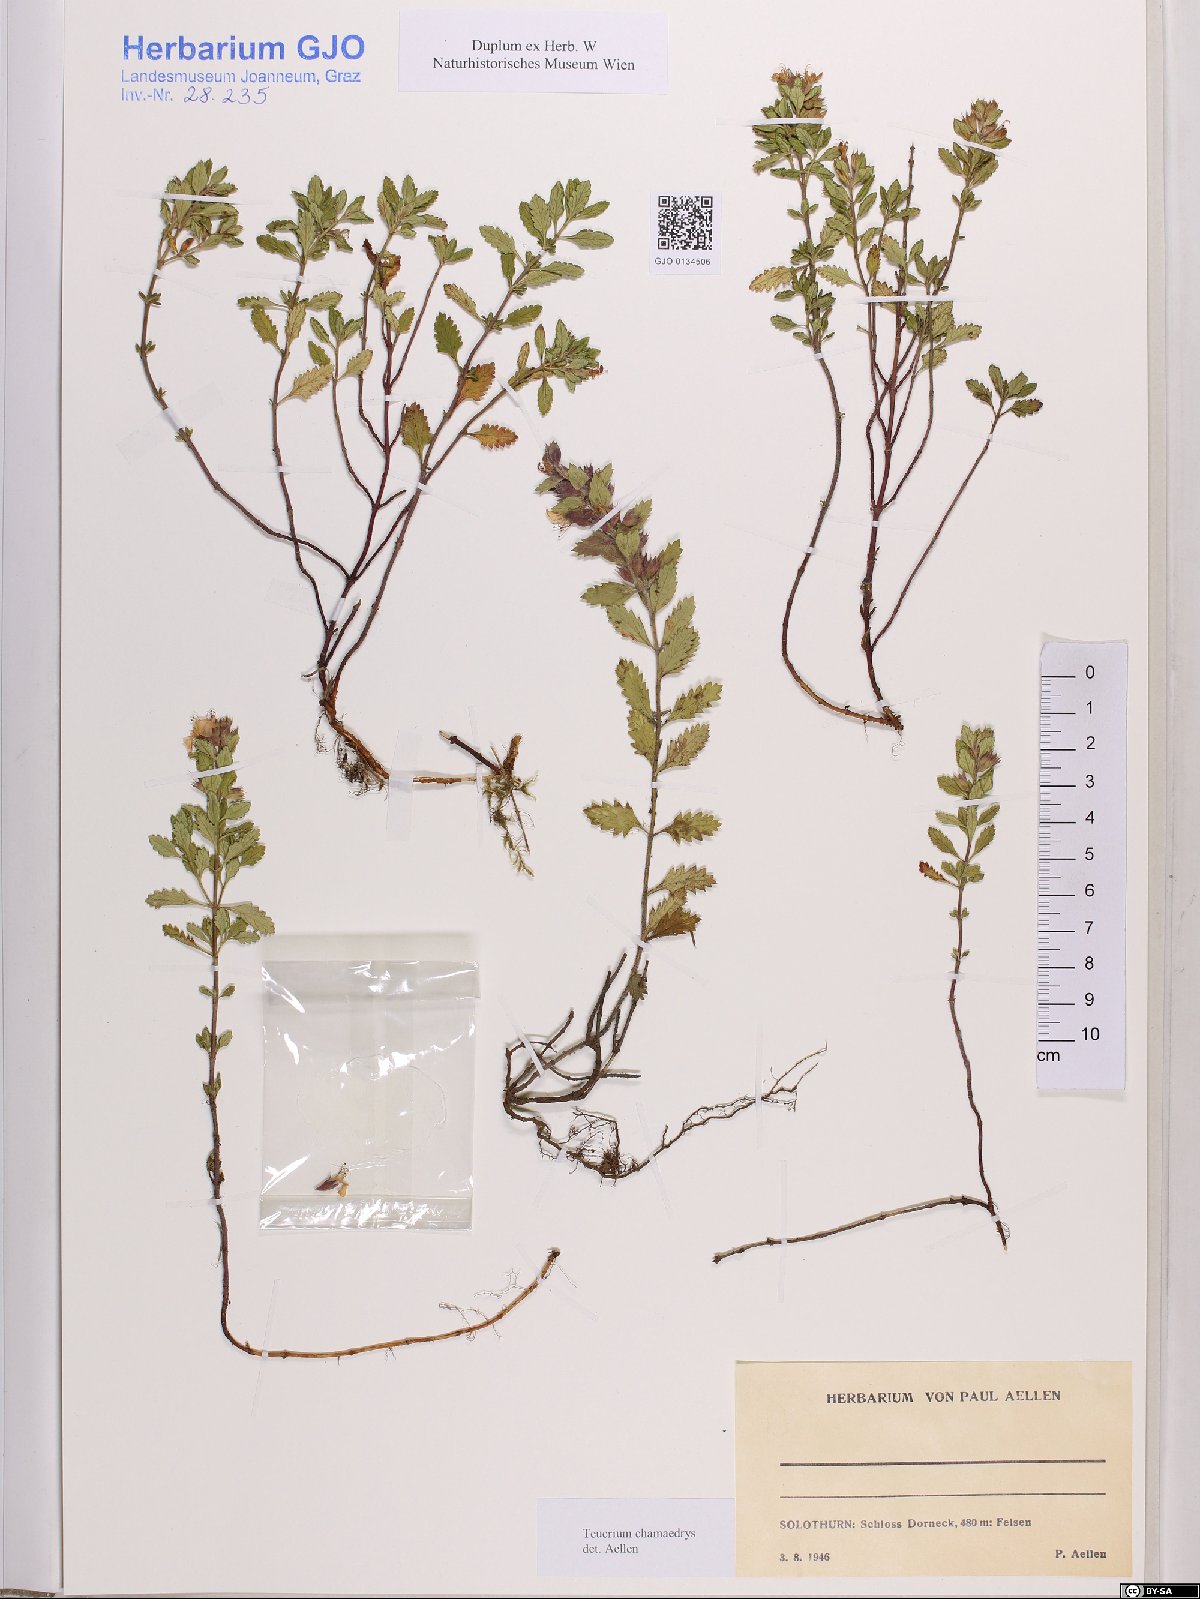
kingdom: Plantae
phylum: Tracheophyta
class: Magnoliopsida
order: Lamiales
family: Lamiaceae
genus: Teucrium
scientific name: Teucrium chamaedrys
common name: Wall germander
